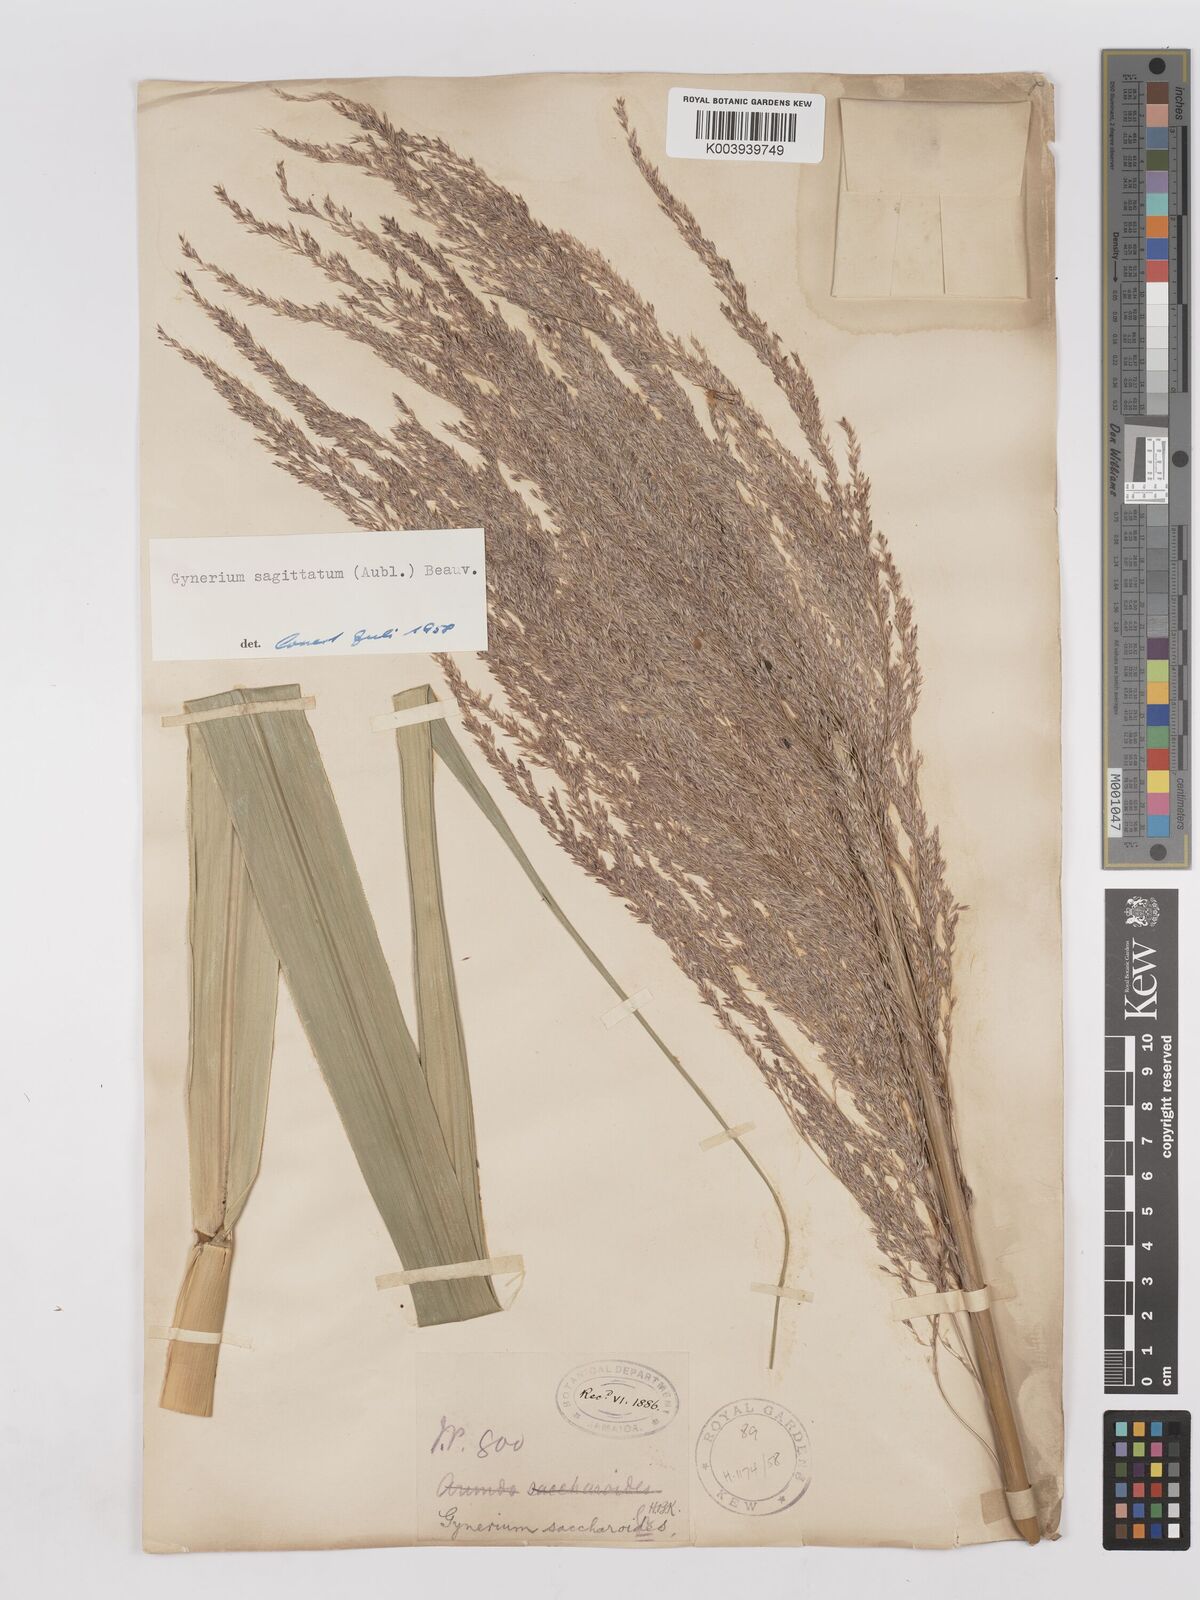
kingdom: Plantae
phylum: Tracheophyta
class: Liliopsida
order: Poales
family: Poaceae
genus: Gynerium
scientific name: Gynerium sagittatum
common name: Wild cane
